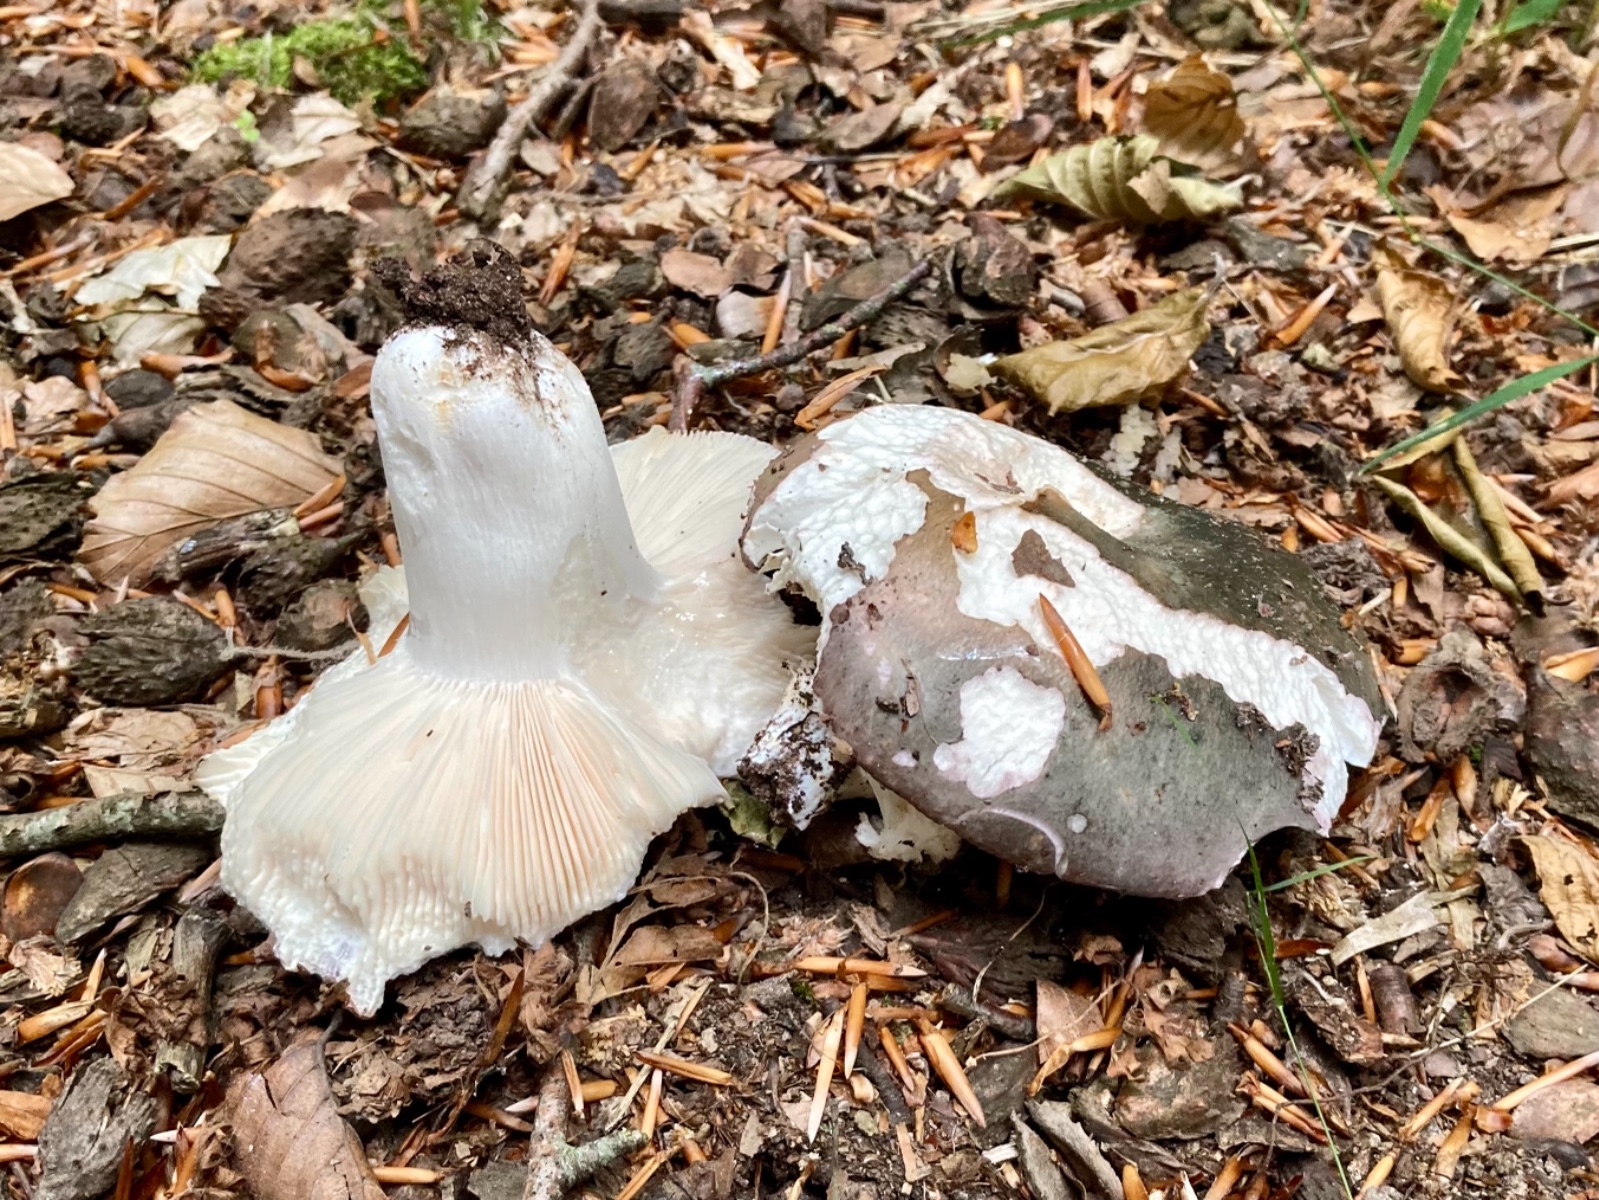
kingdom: Fungi
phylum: Basidiomycota
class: Agaricomycetes
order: Russulales
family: Russulaceae
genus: Russula
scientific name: Russula cyanoxantha
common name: broget skørhat
